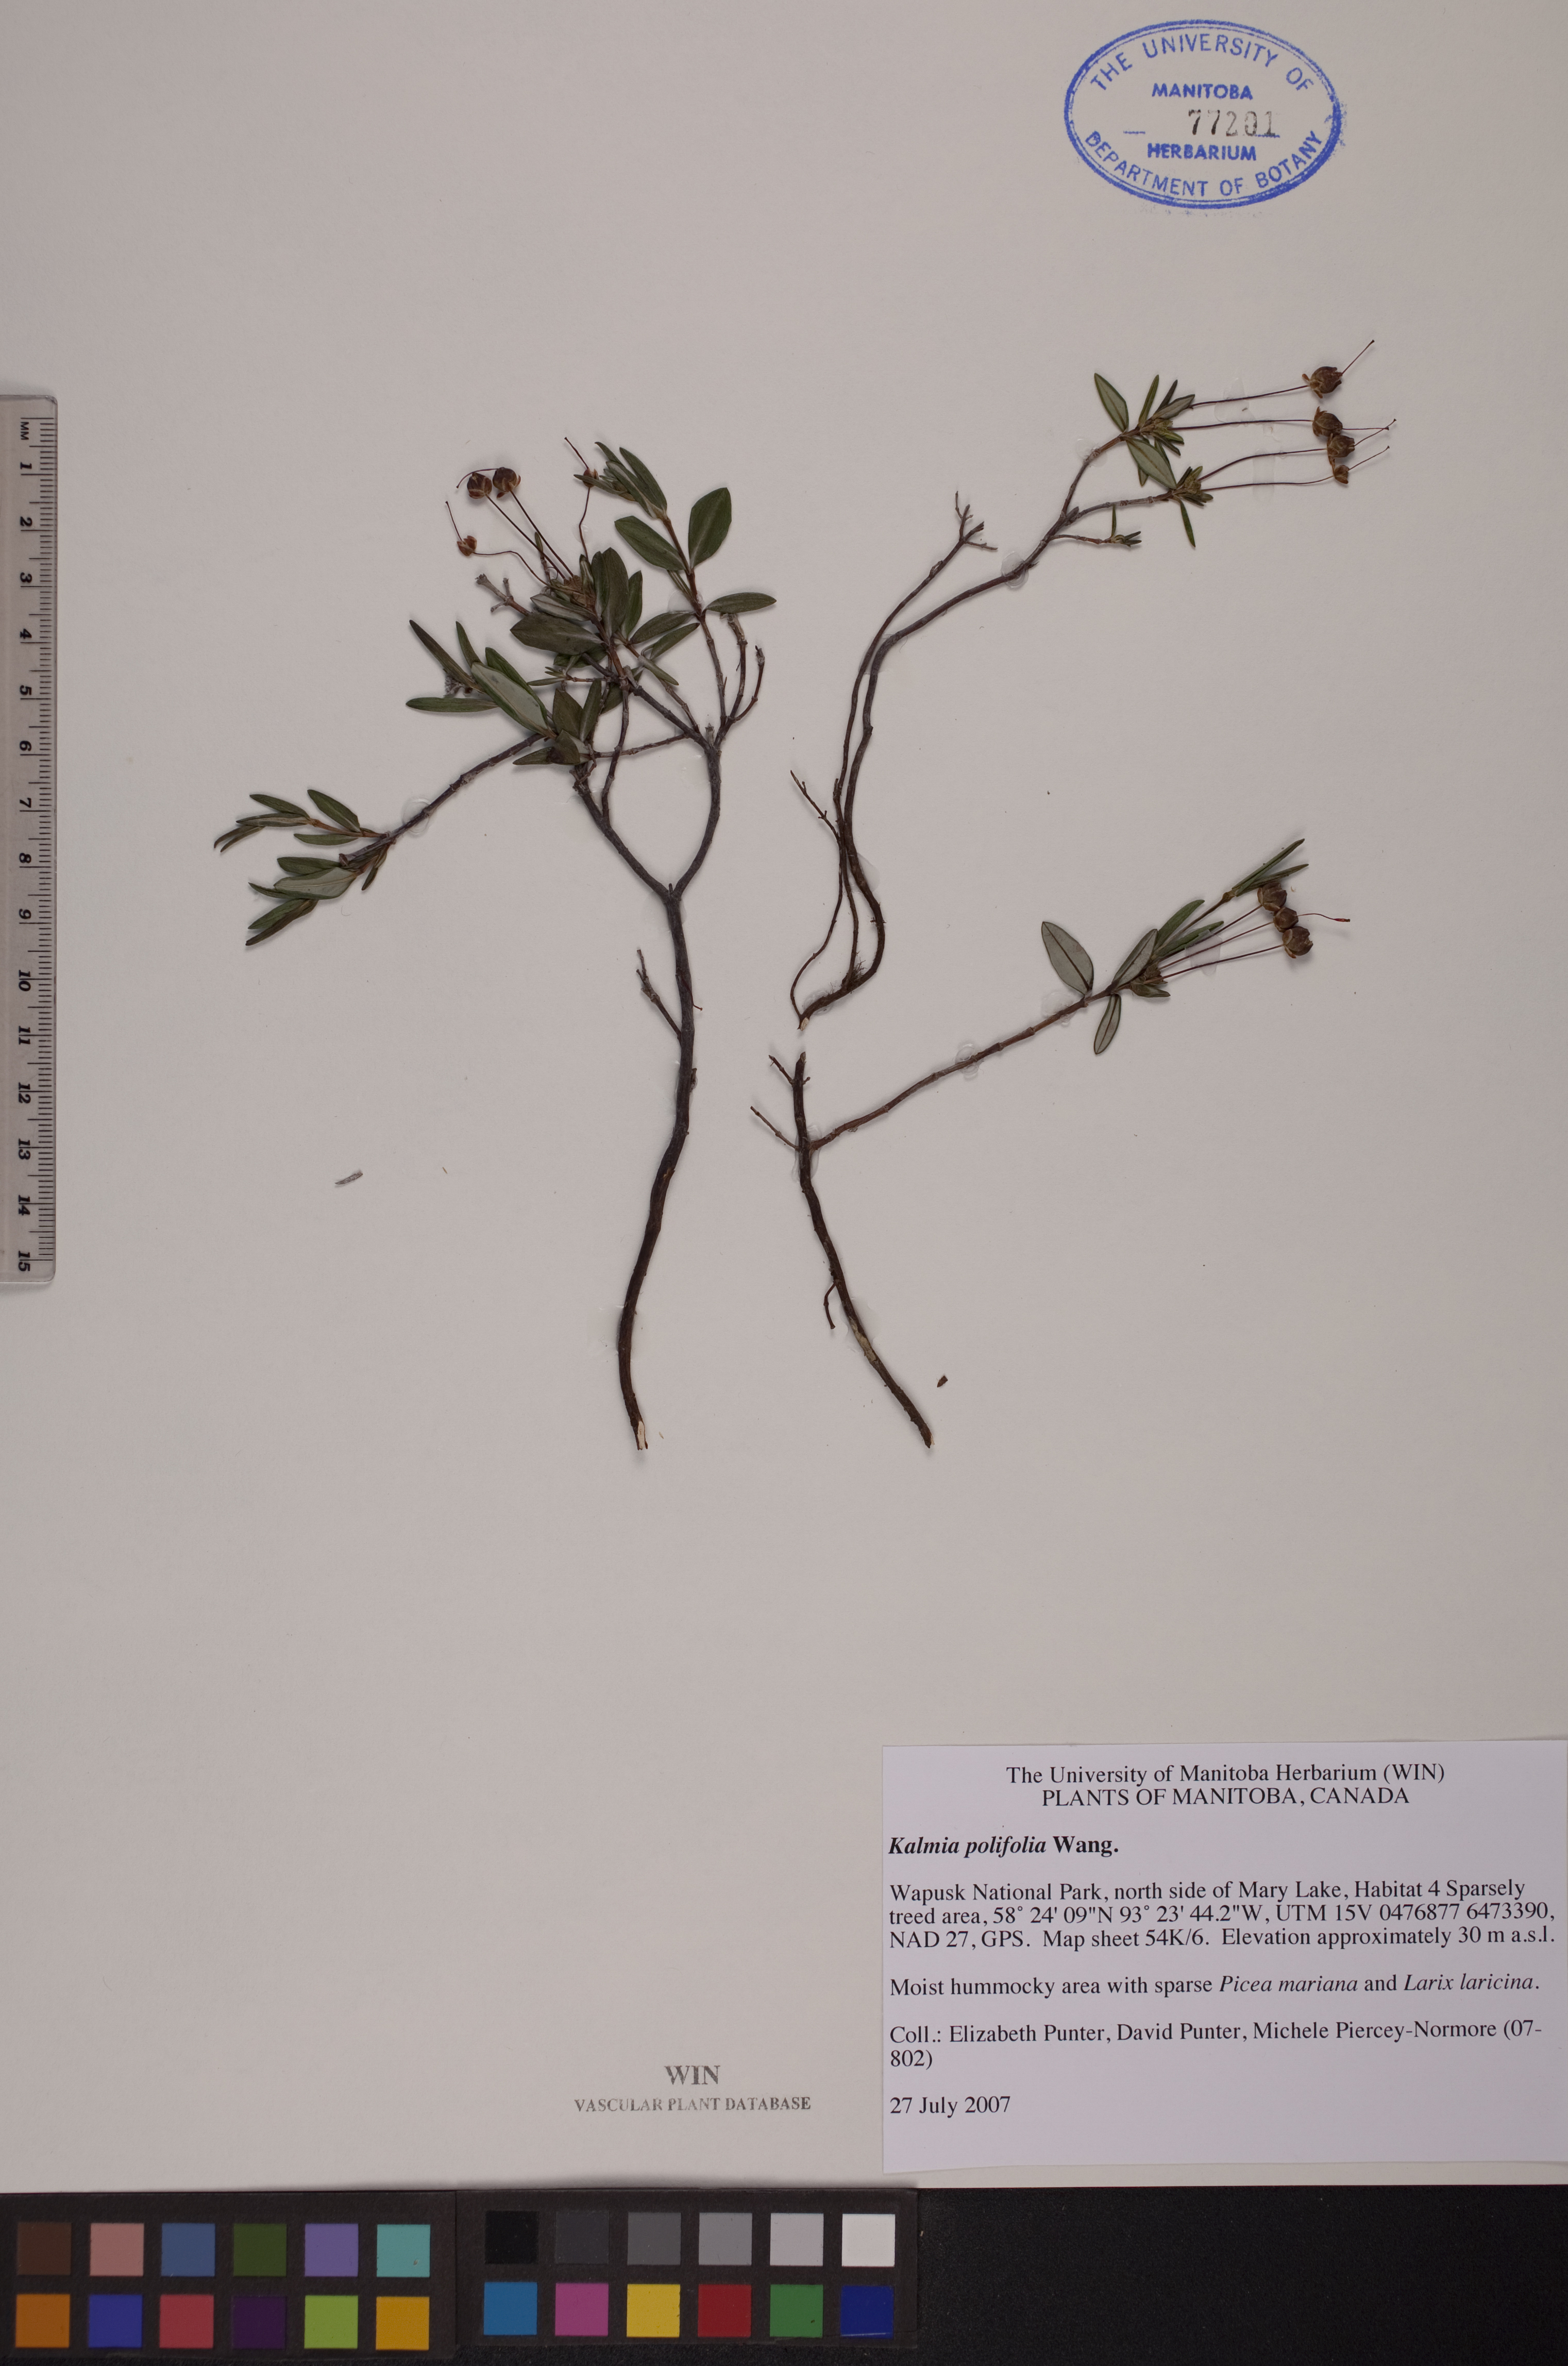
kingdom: Plantae
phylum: Tracheophyta
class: Magnoliopsida
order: Ericales
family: Ericaceae
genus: Kalmia
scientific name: Kalmia polifolia
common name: Bog-laurel
